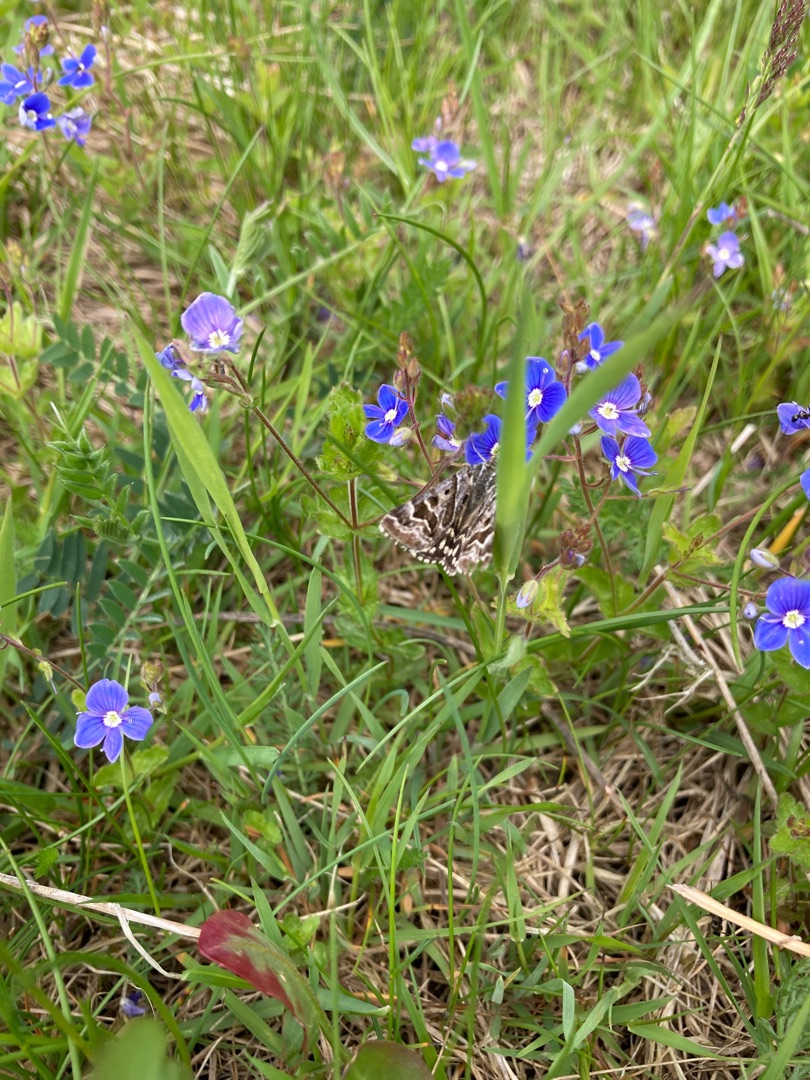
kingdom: Animalia
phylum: Arthropoda
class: Insecta
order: Lepidoptera
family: Erebidae
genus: Callistege
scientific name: Callistege mi
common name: Marmoreret kløverugle
